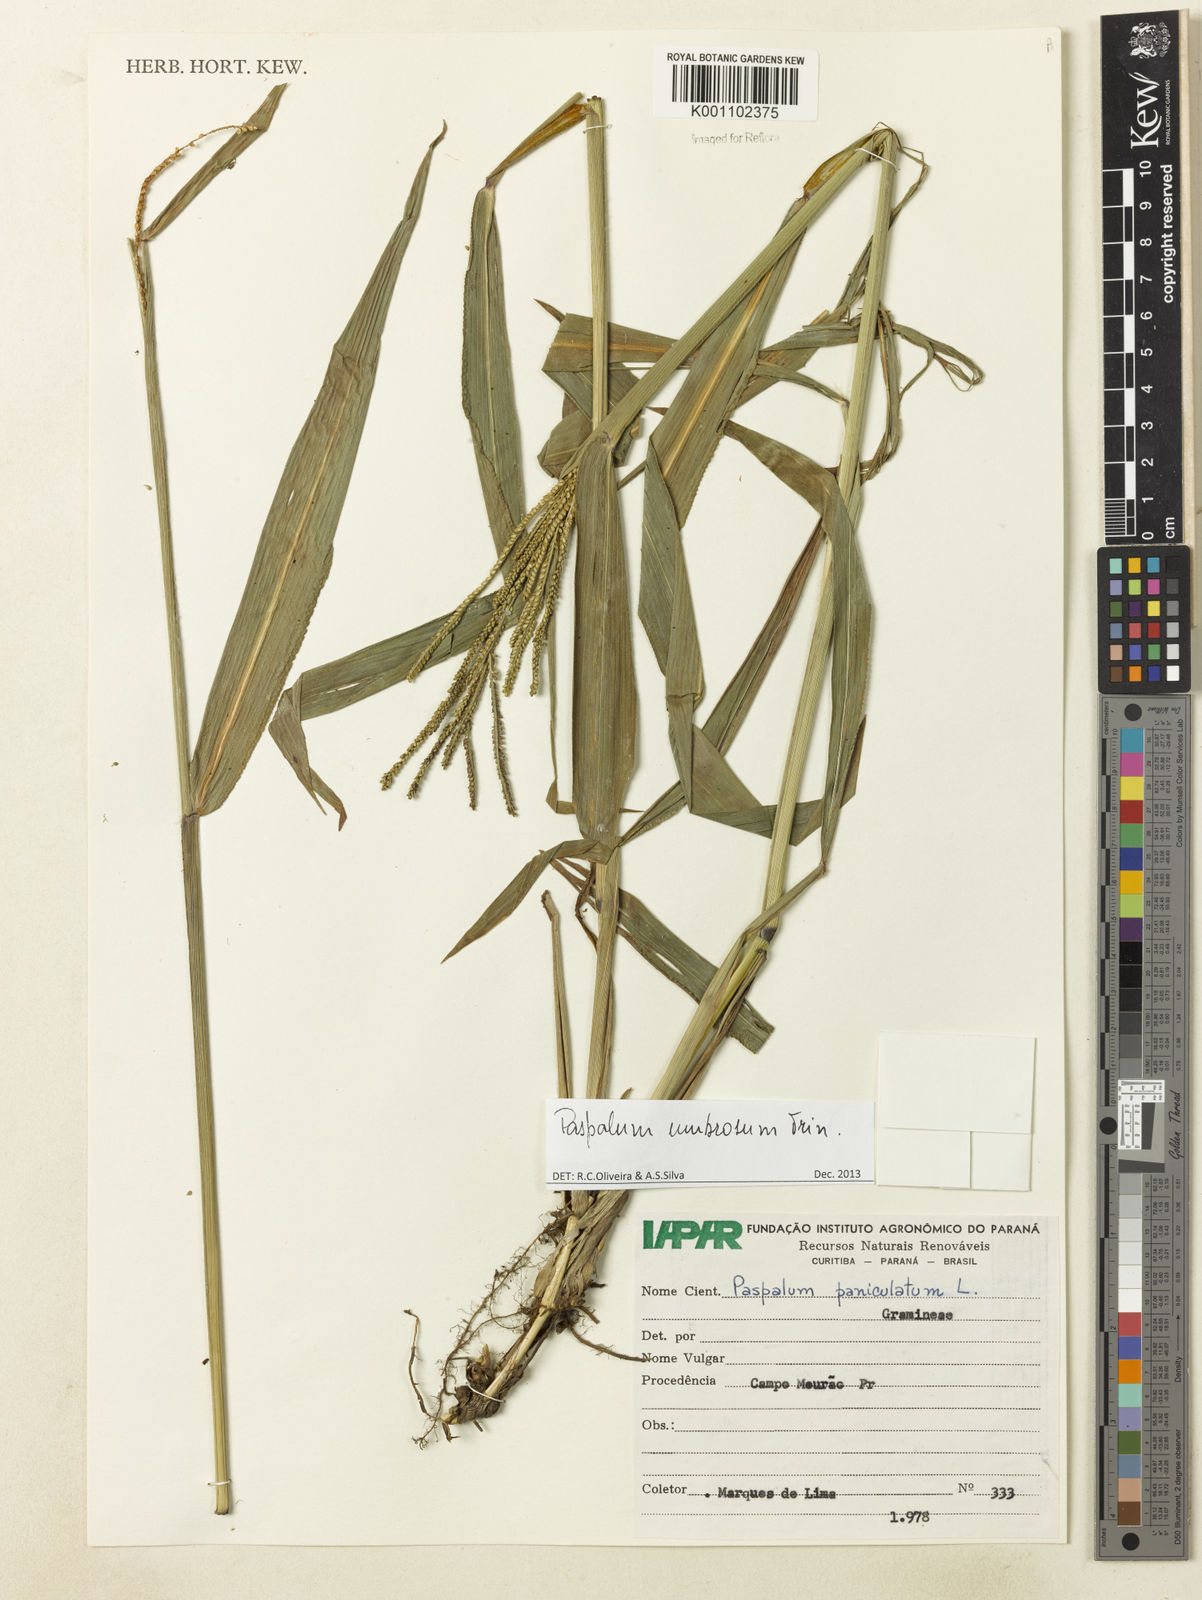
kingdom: Plantae
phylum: Tracheophyta
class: Liliopsida
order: Poales
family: Poaceae
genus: Paspalum
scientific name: Paspalum umbrosum
